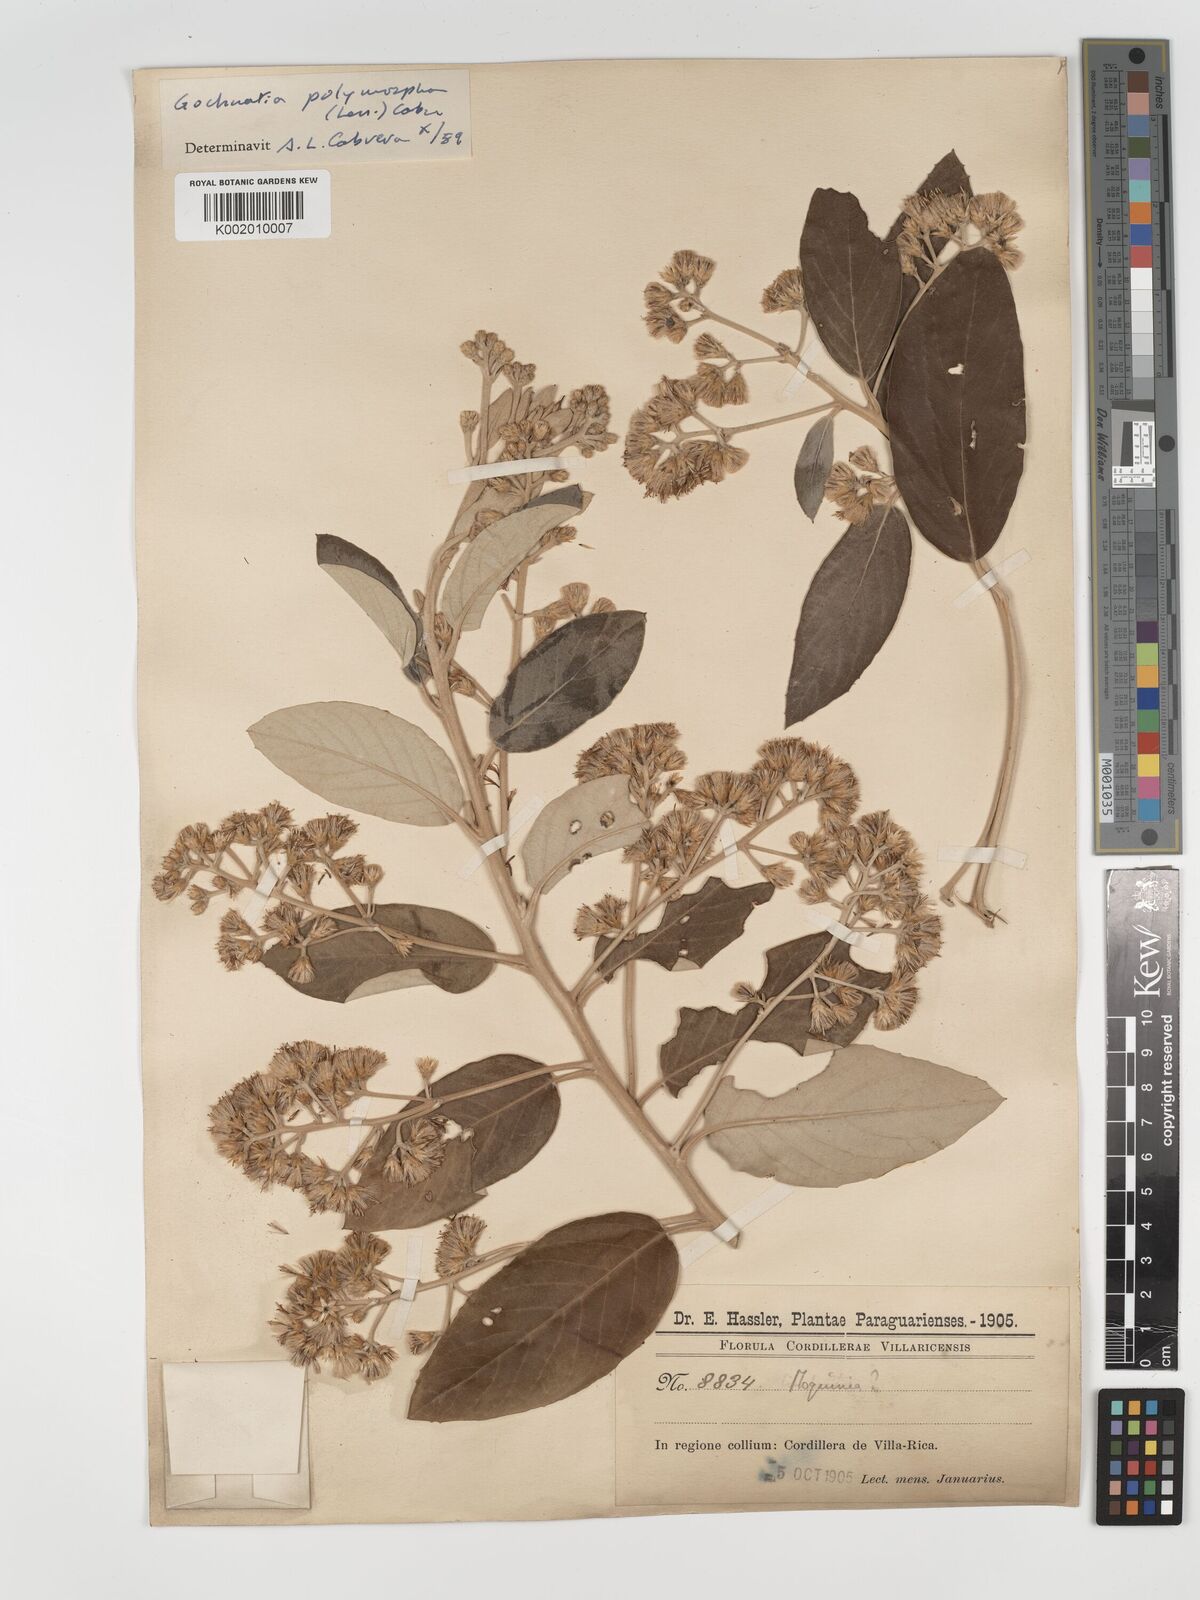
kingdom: Plantae
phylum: Tracheophyta
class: Magnoliopsida
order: Asterales
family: Asteraceae
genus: Moquiniastrum
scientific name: Moquiniastrum polymorphum
